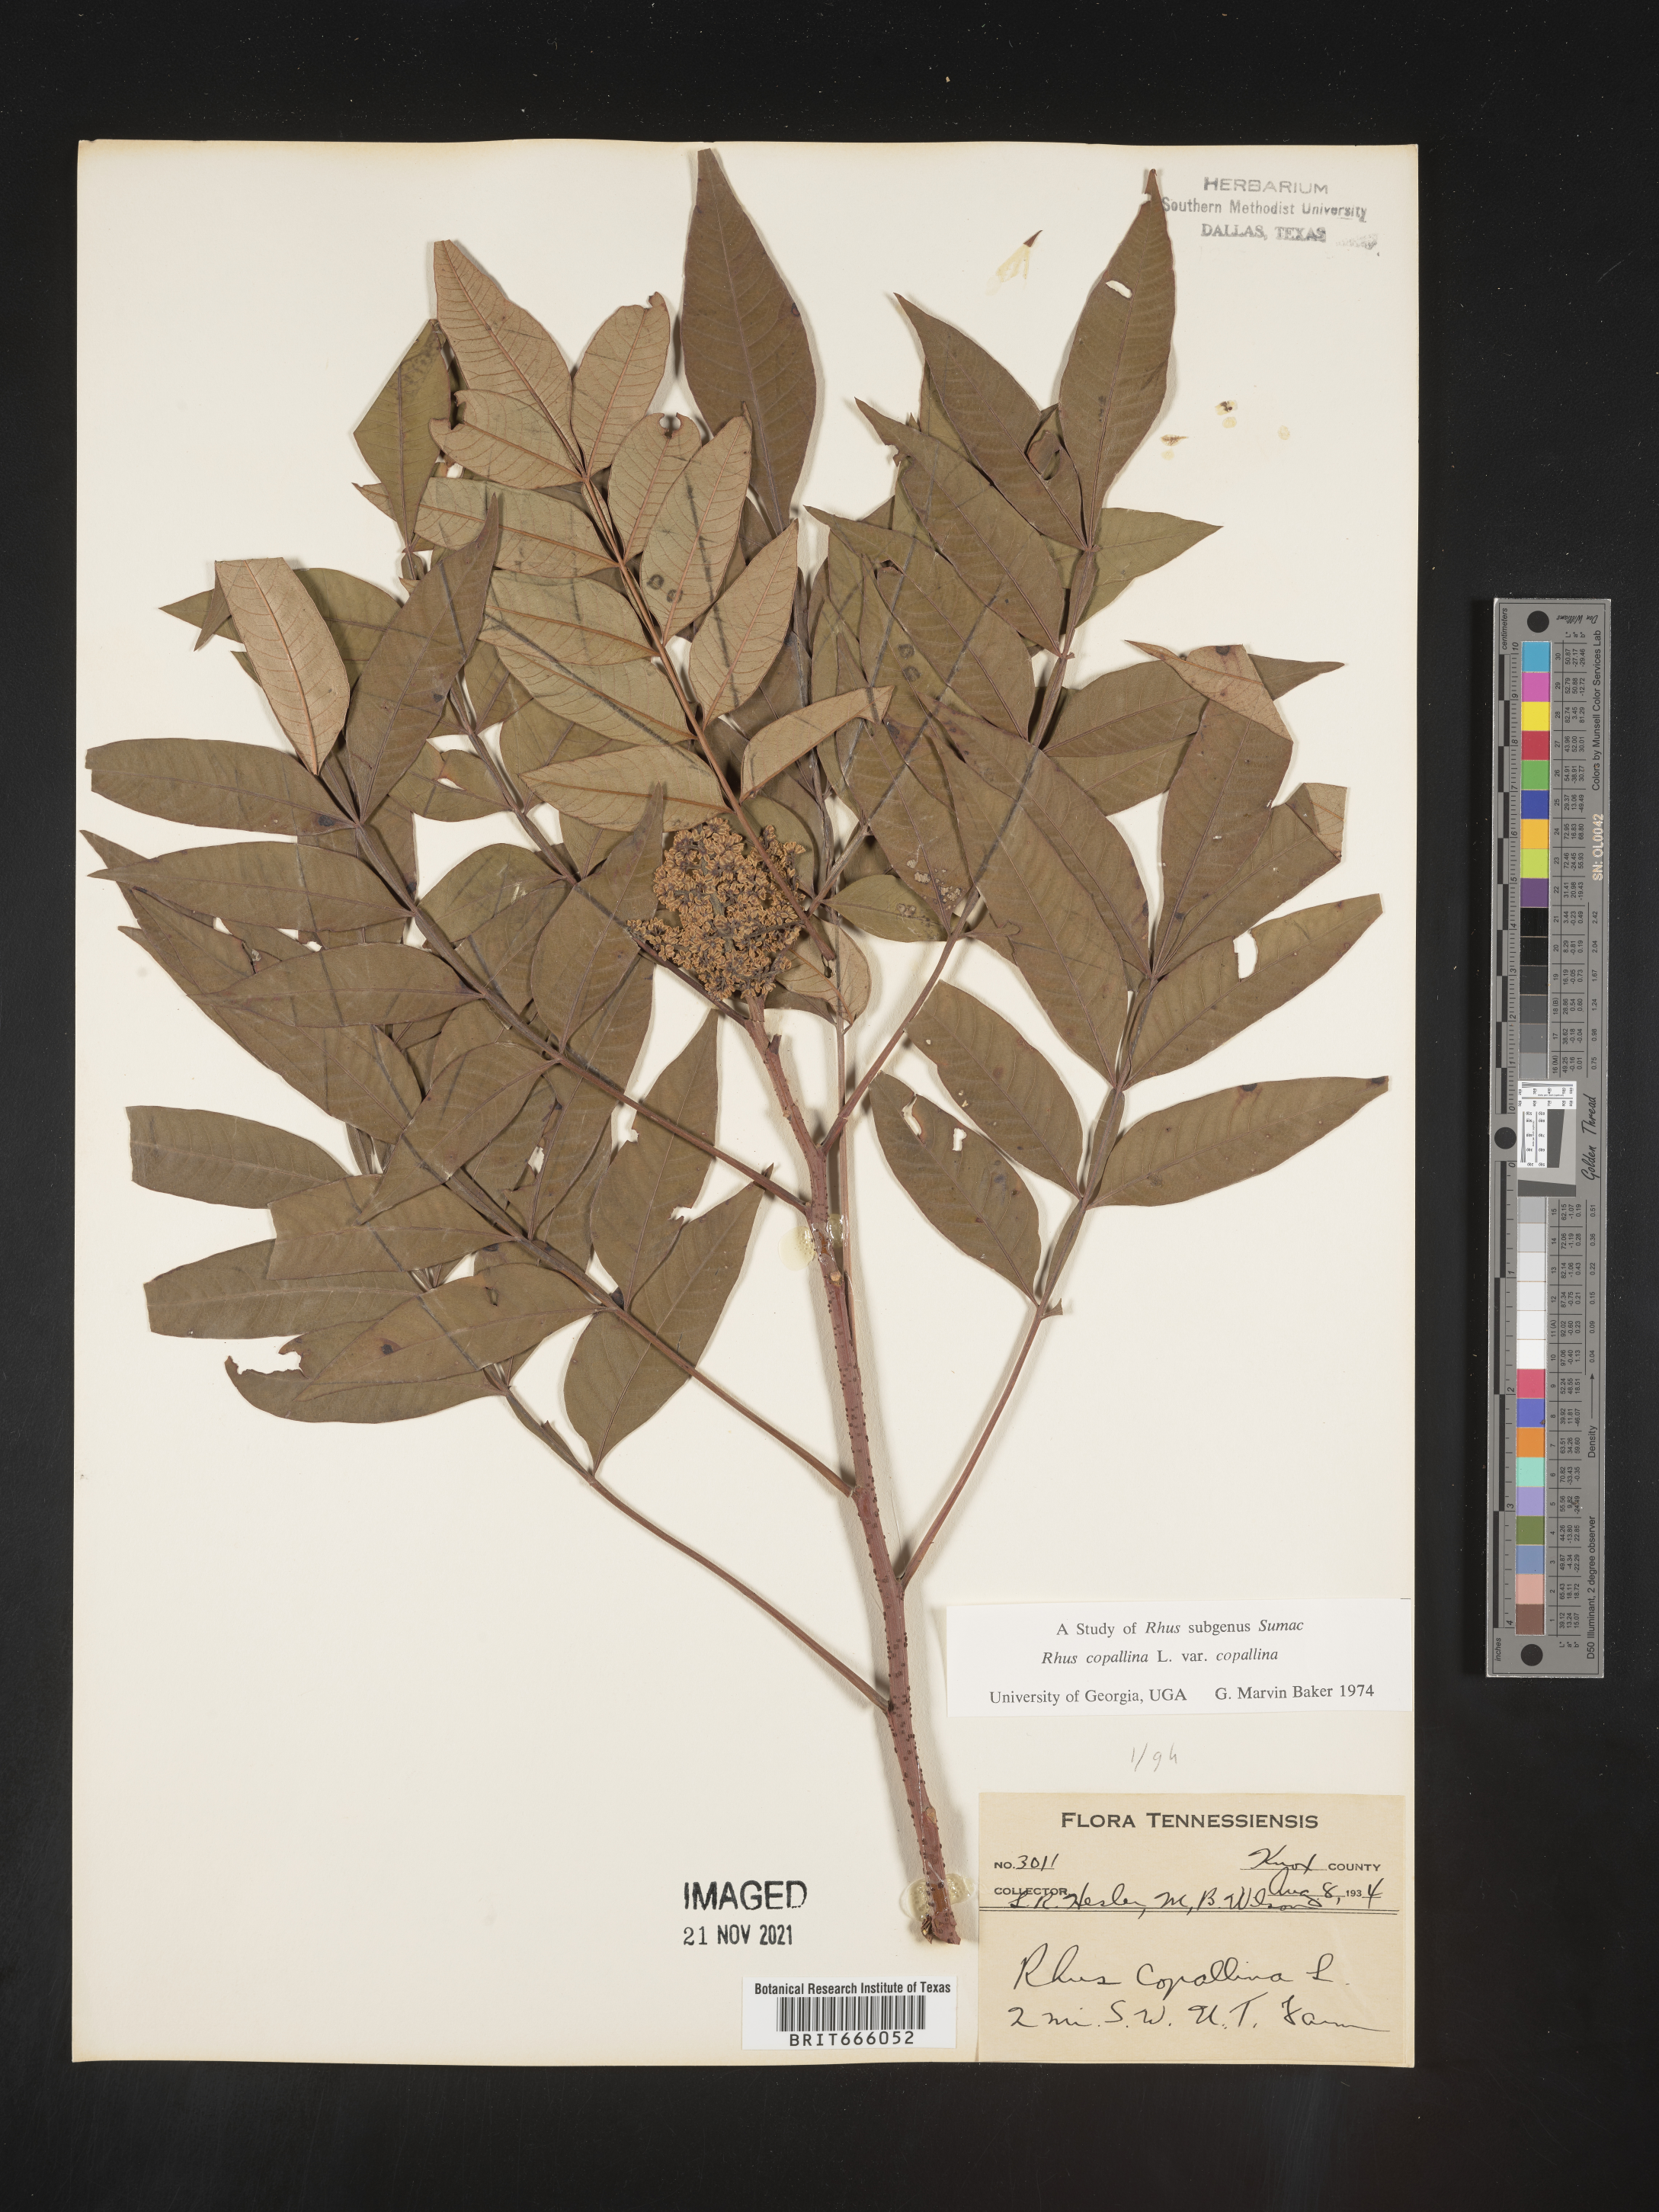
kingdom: Plantae
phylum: Tracheophyta
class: Magnoliopsida
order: Sapindales
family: Anacardiaceae
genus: Rhus
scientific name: Rhus copallina
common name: Shining sumac
